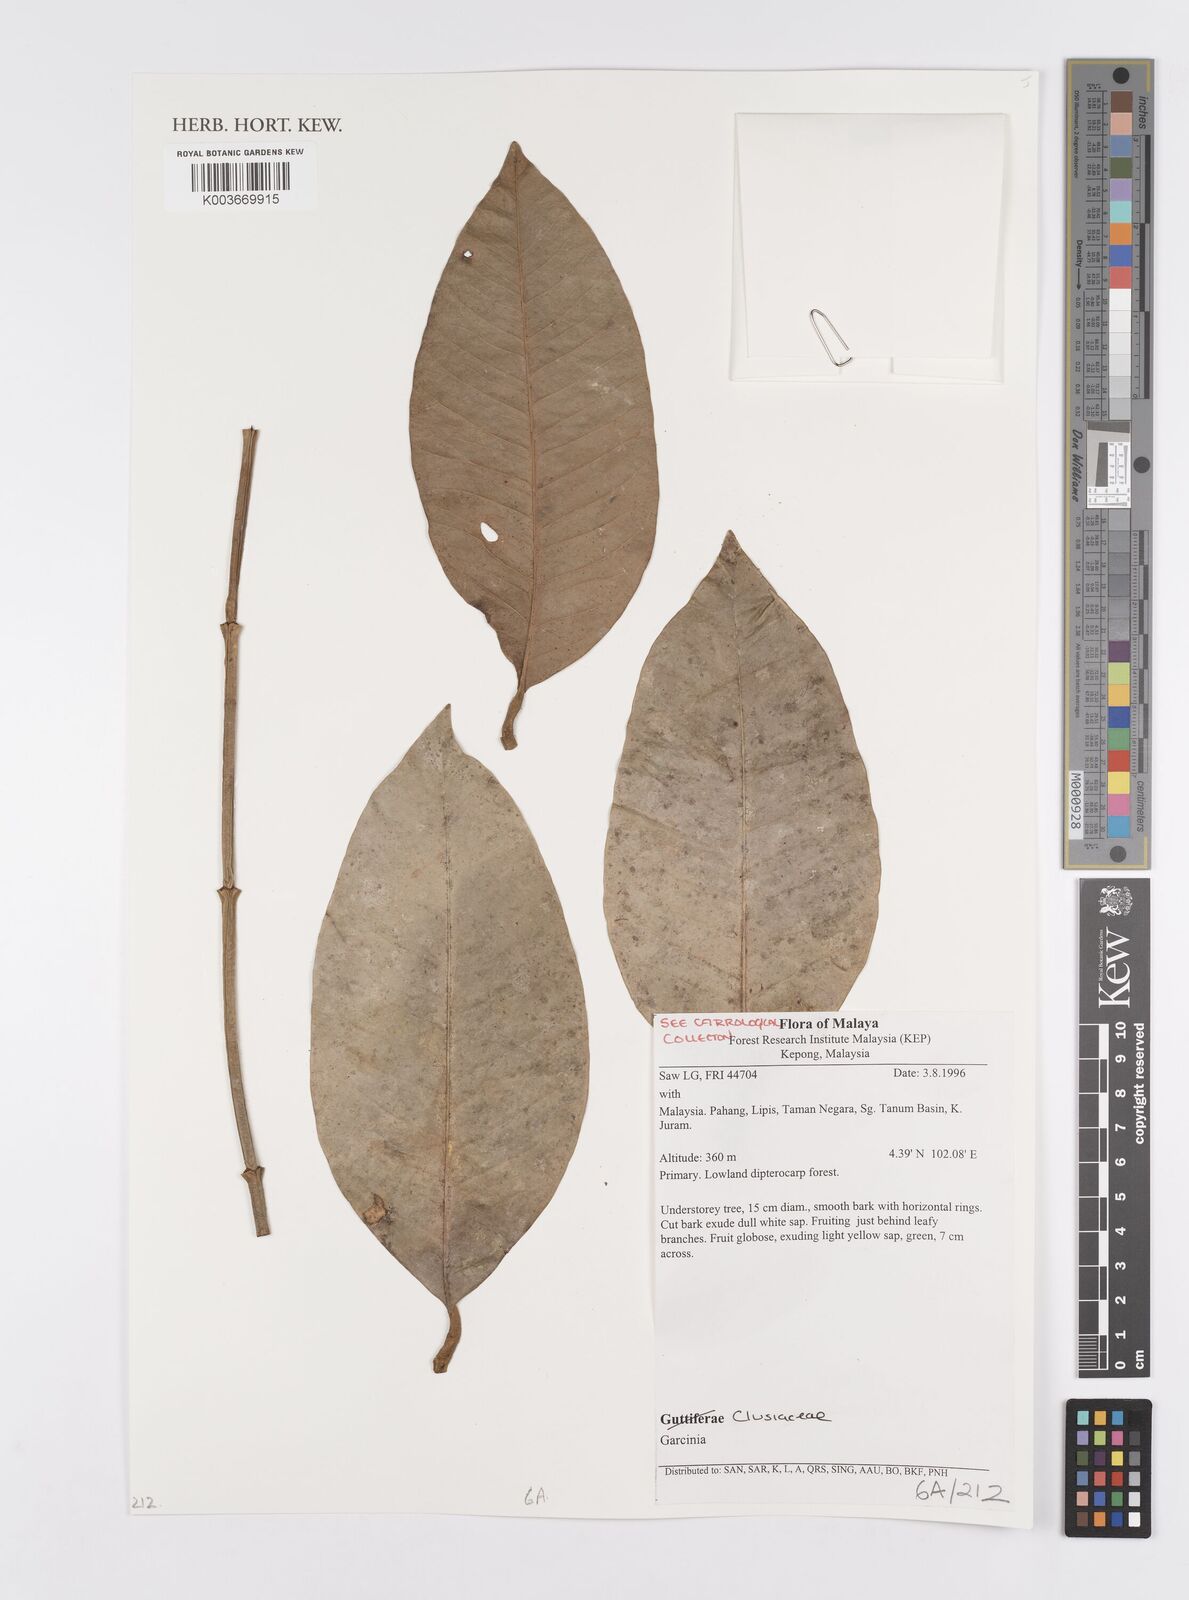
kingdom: Plantae
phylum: Tracheophyta
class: Magnoliopsida
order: Malpighiales
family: Clusiaceae
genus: Garcinia
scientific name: Garcinia
